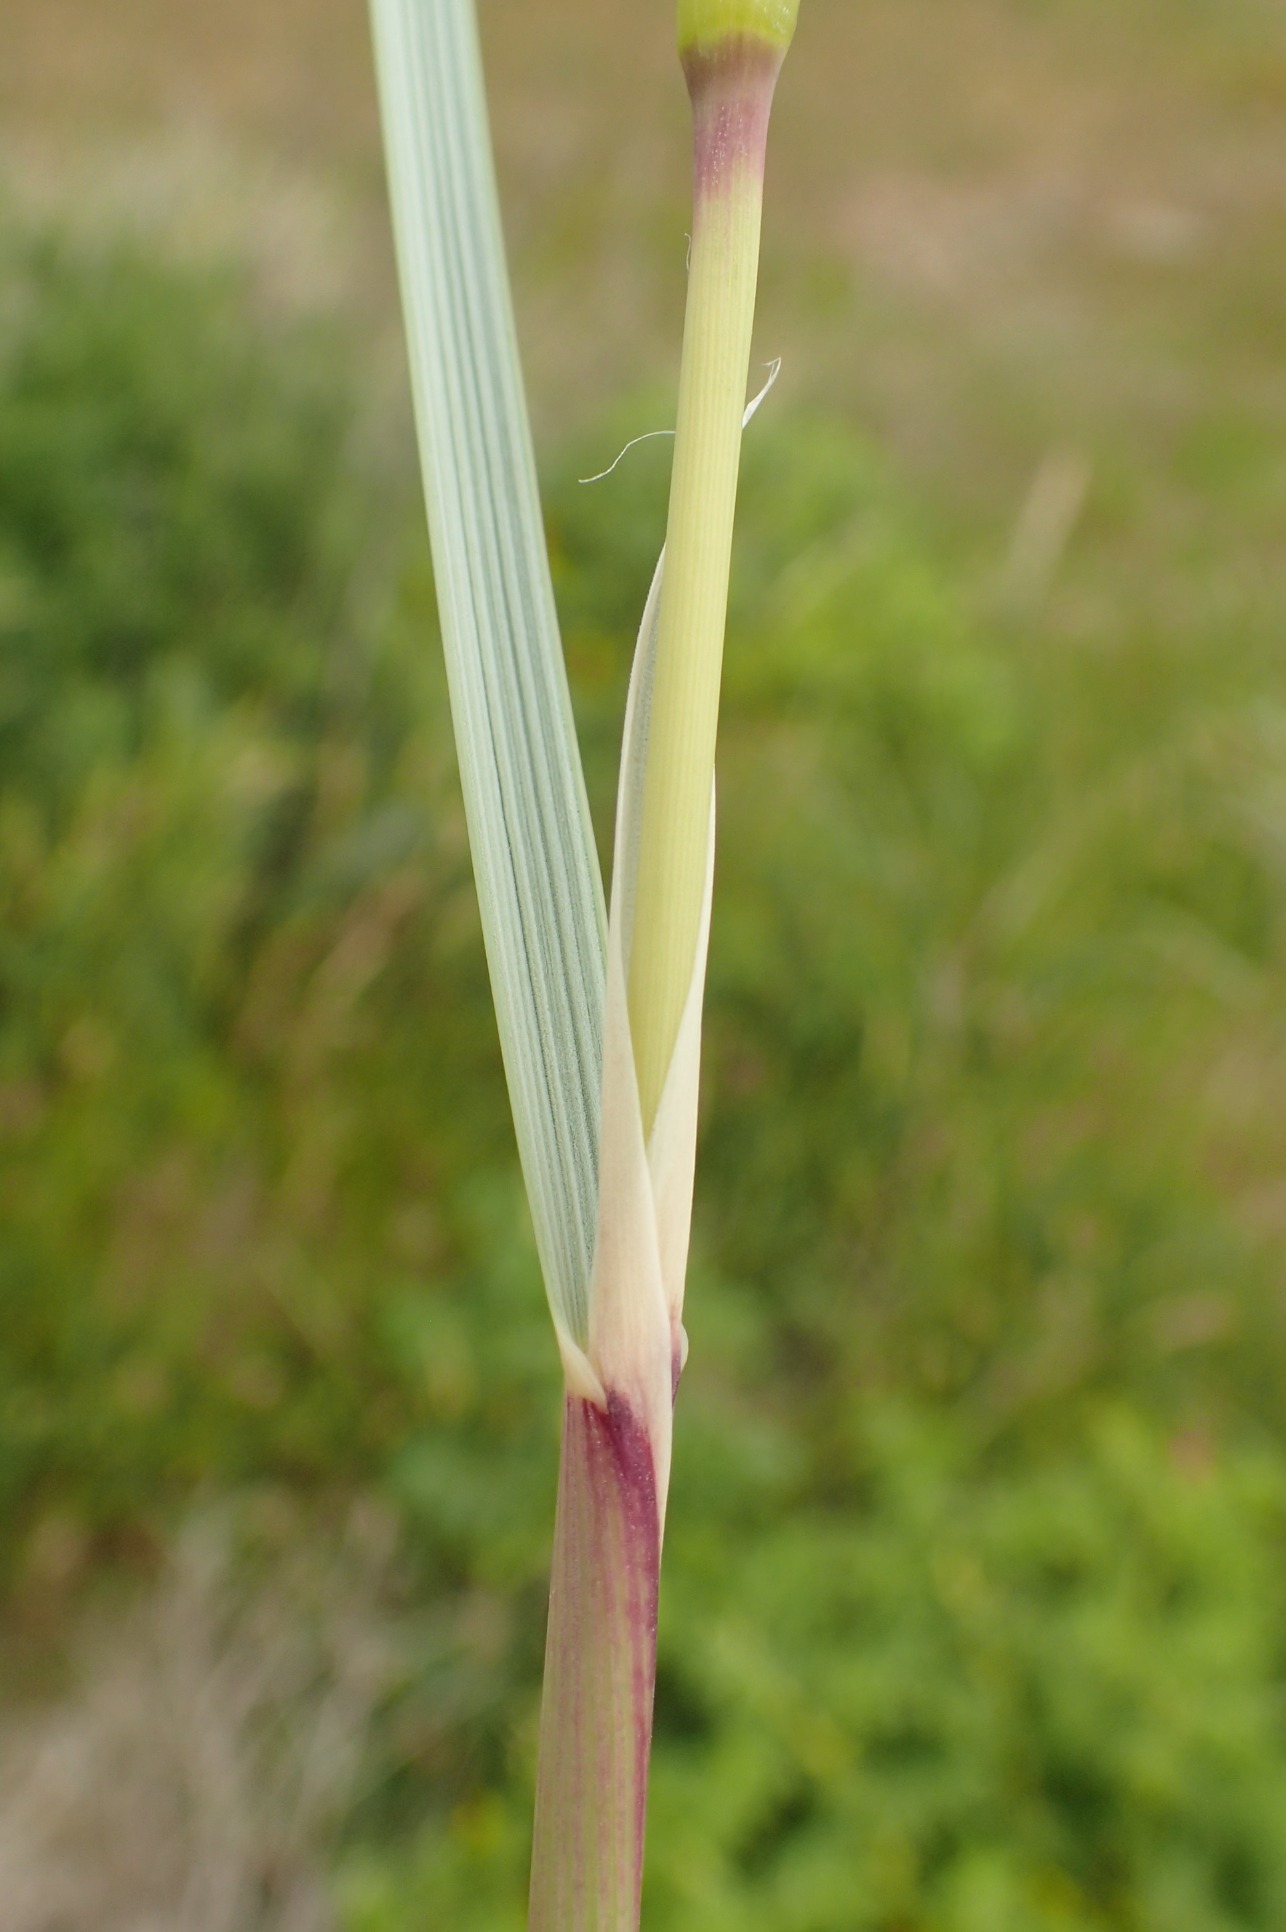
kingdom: Plantae
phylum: Tracheophyta
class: Liliopsida
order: Poales
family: Poaceae
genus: Calamagrostis
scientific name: Calamagrostis arenaria
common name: Sand-hjælme
